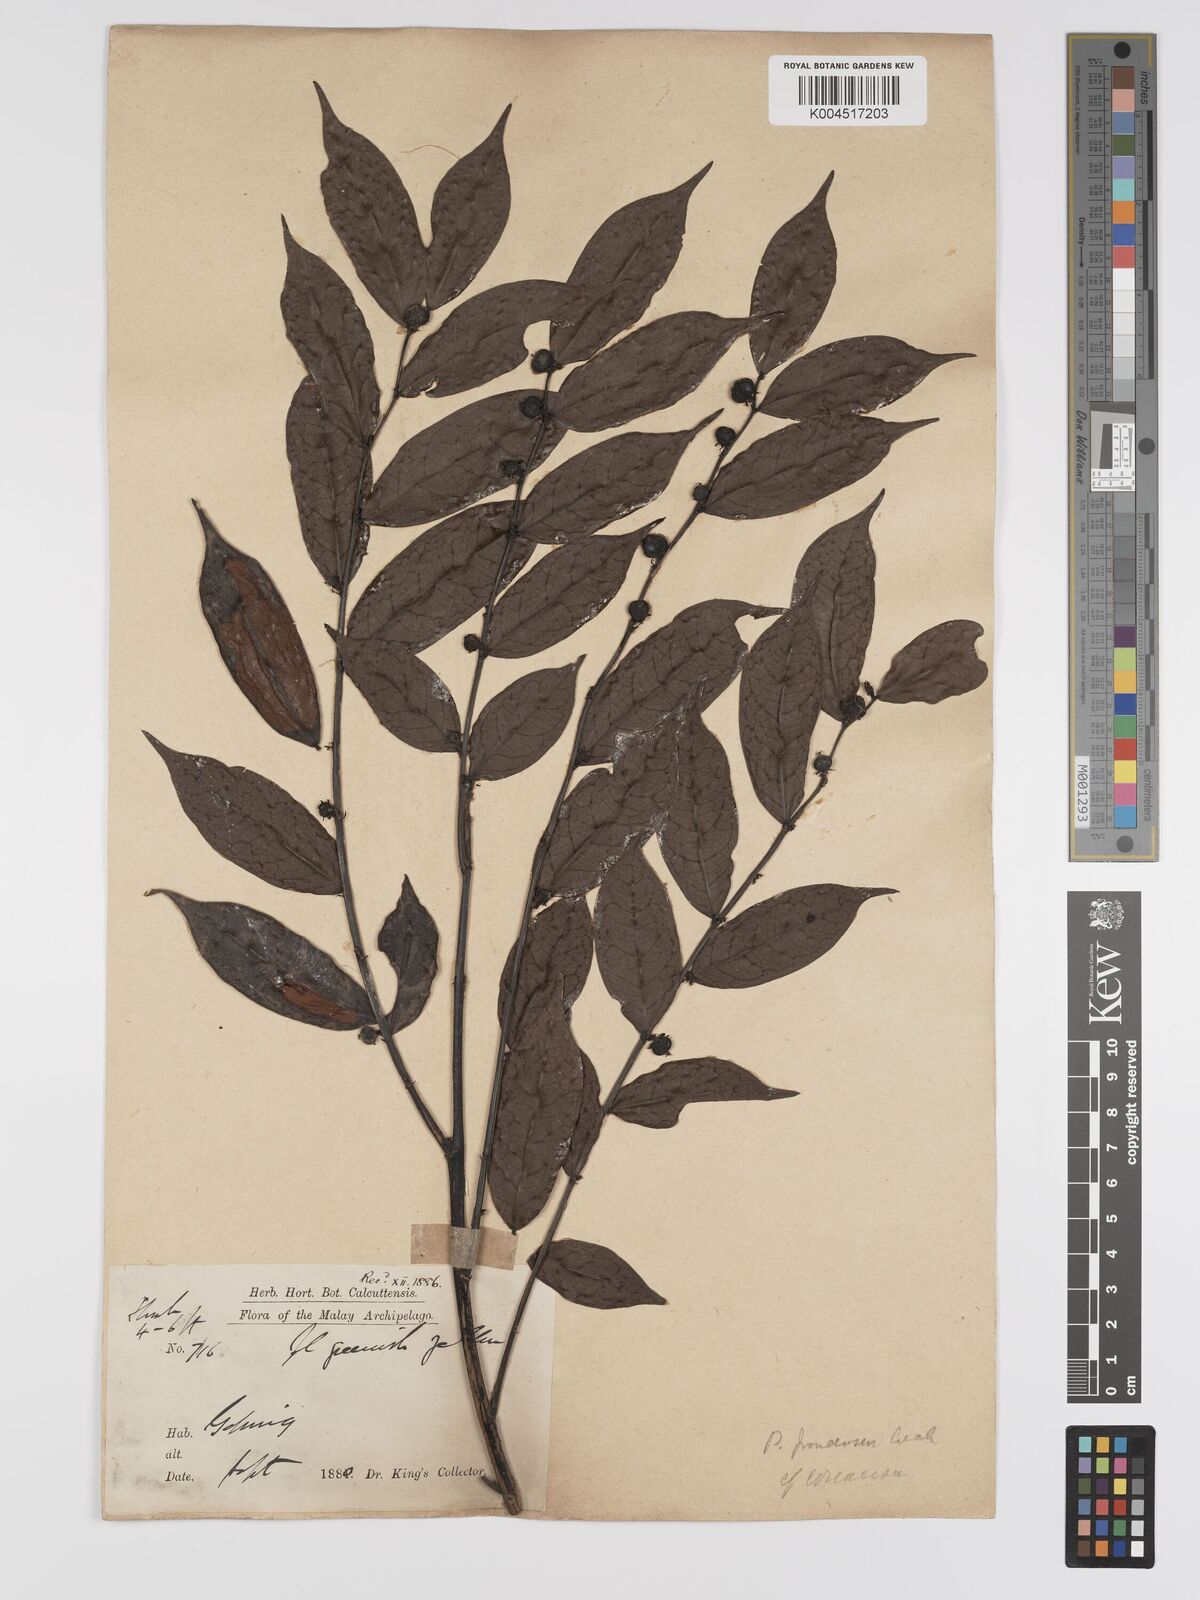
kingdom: Plantae
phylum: Tracheophyta
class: Magnoliopsida
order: Malpighiales
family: Phyllanthaceae
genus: Phyllanthus
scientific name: Phyllanthus
